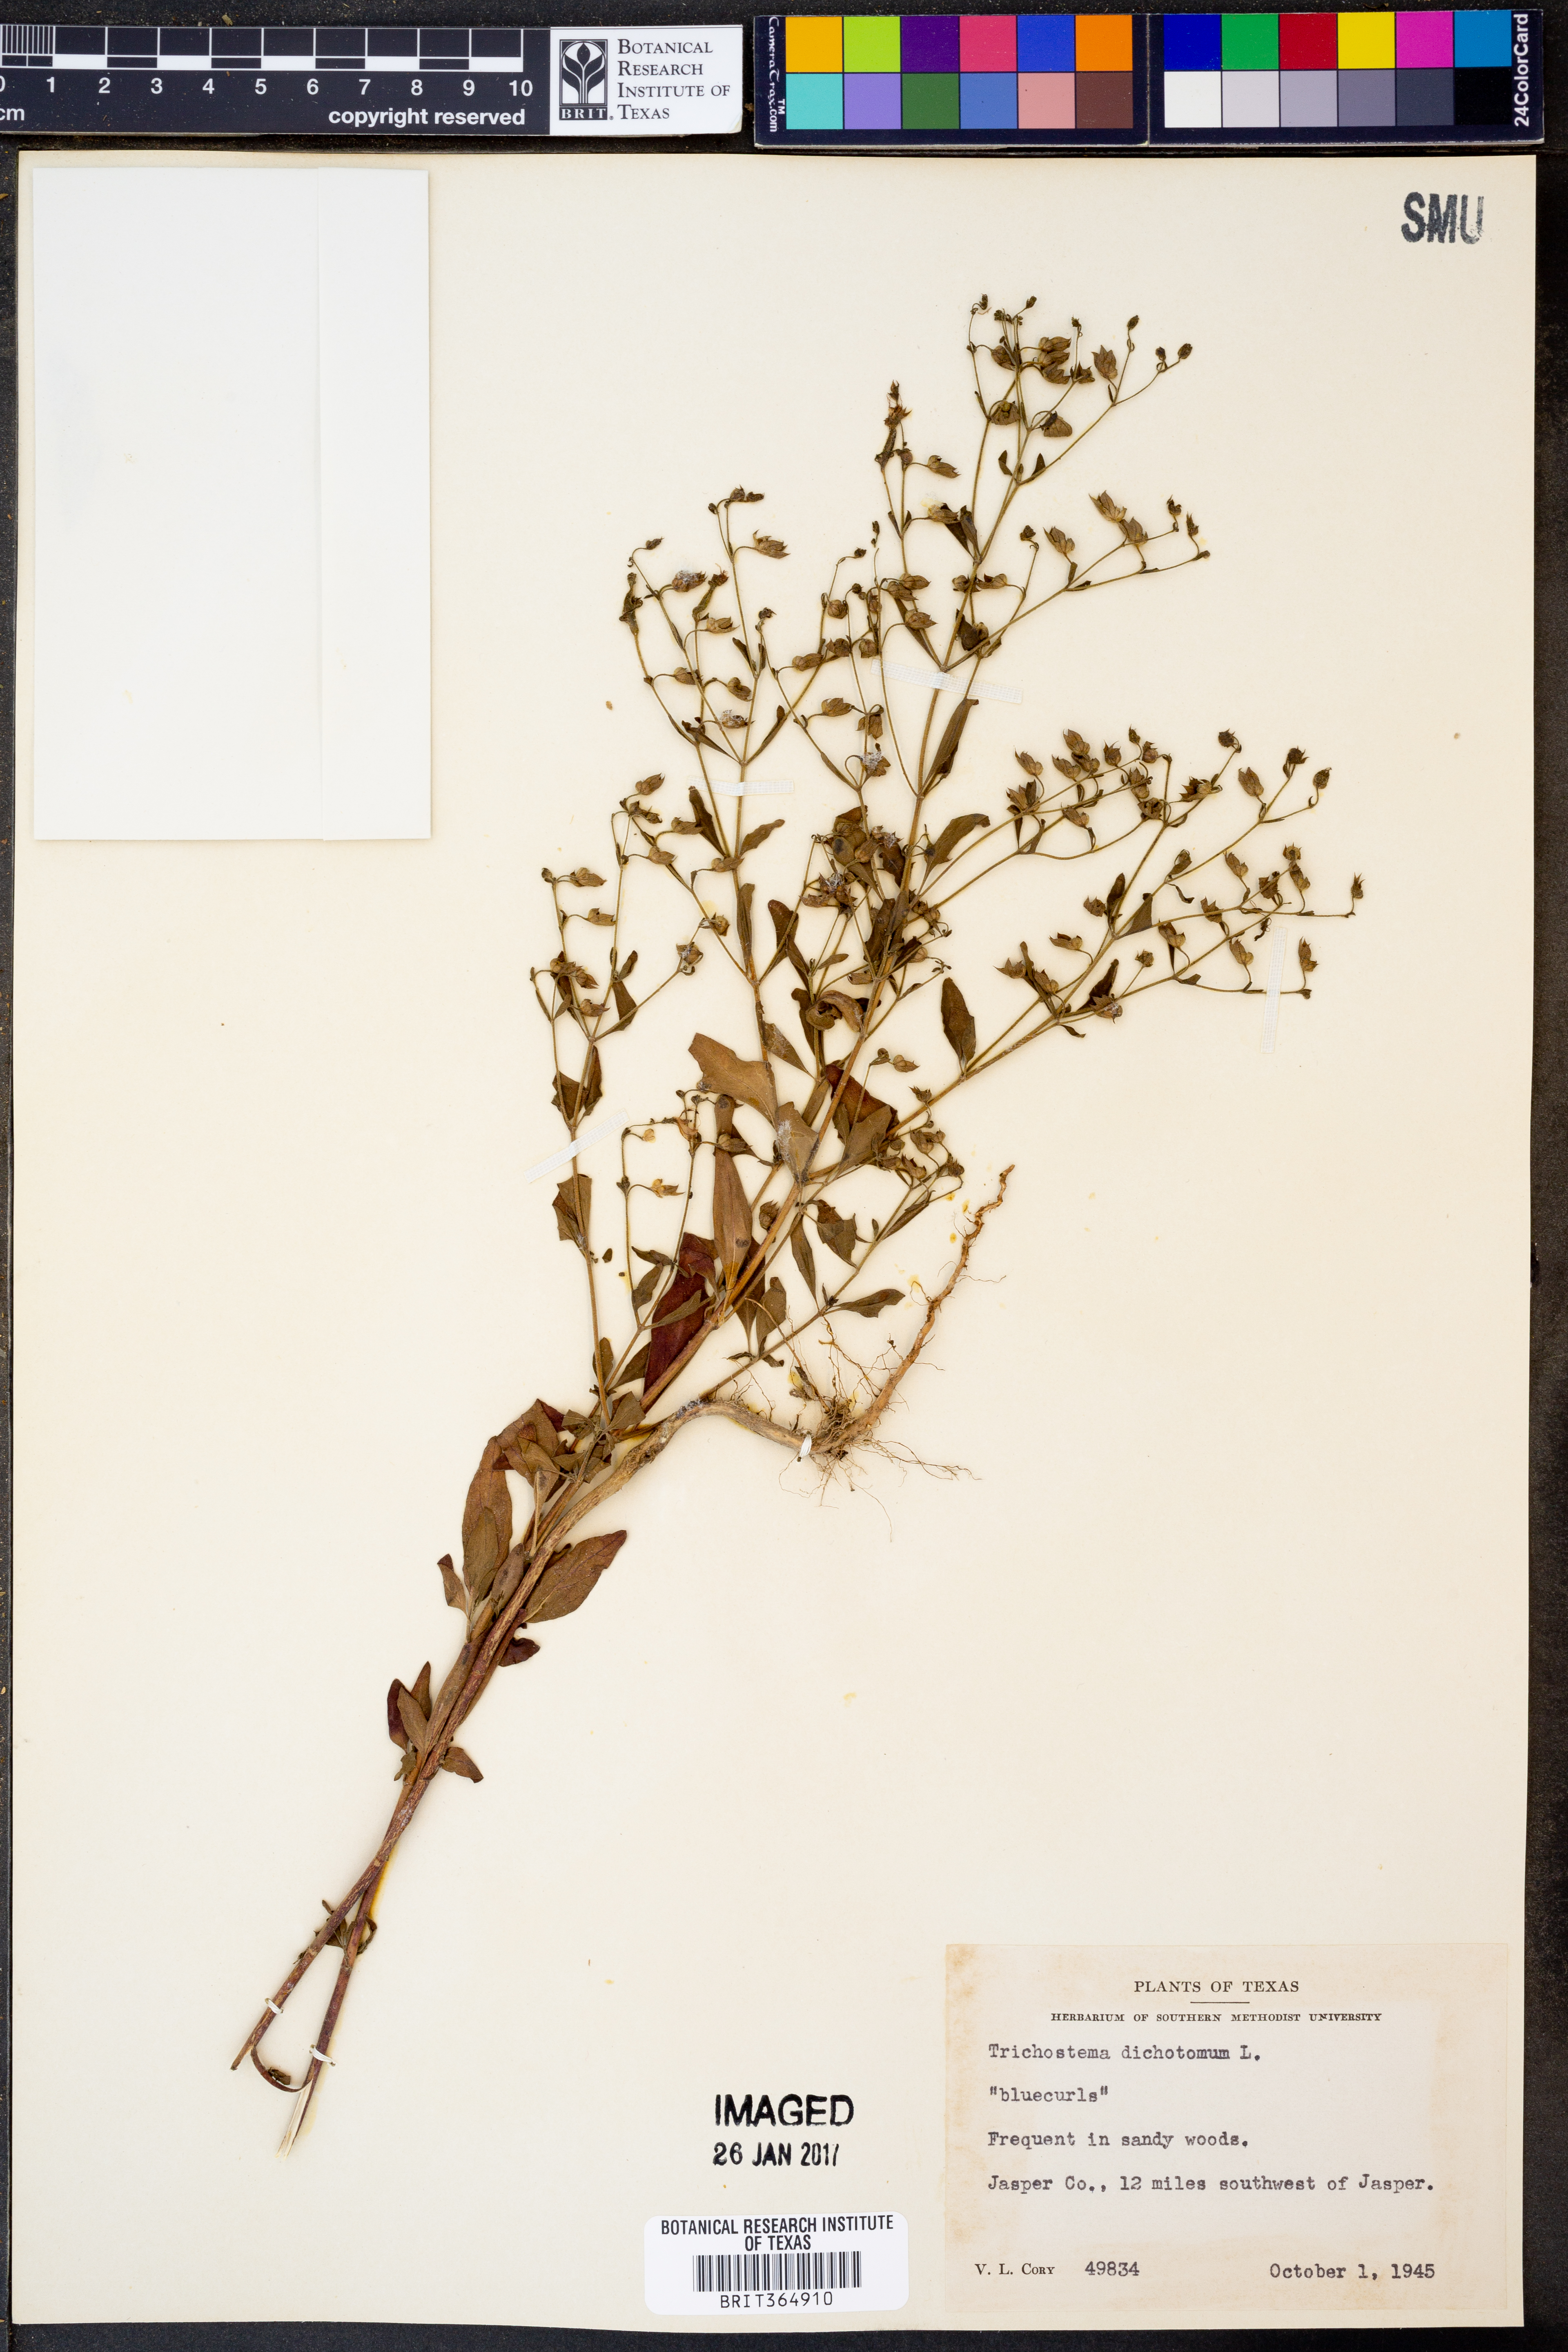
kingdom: Plantae
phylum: Tracheophyta
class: Magnoliopsida
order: Lamiales
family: Lamiaceae
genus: Trichostema
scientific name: Trichostema dichotomum
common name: Bastard pennyroyal
